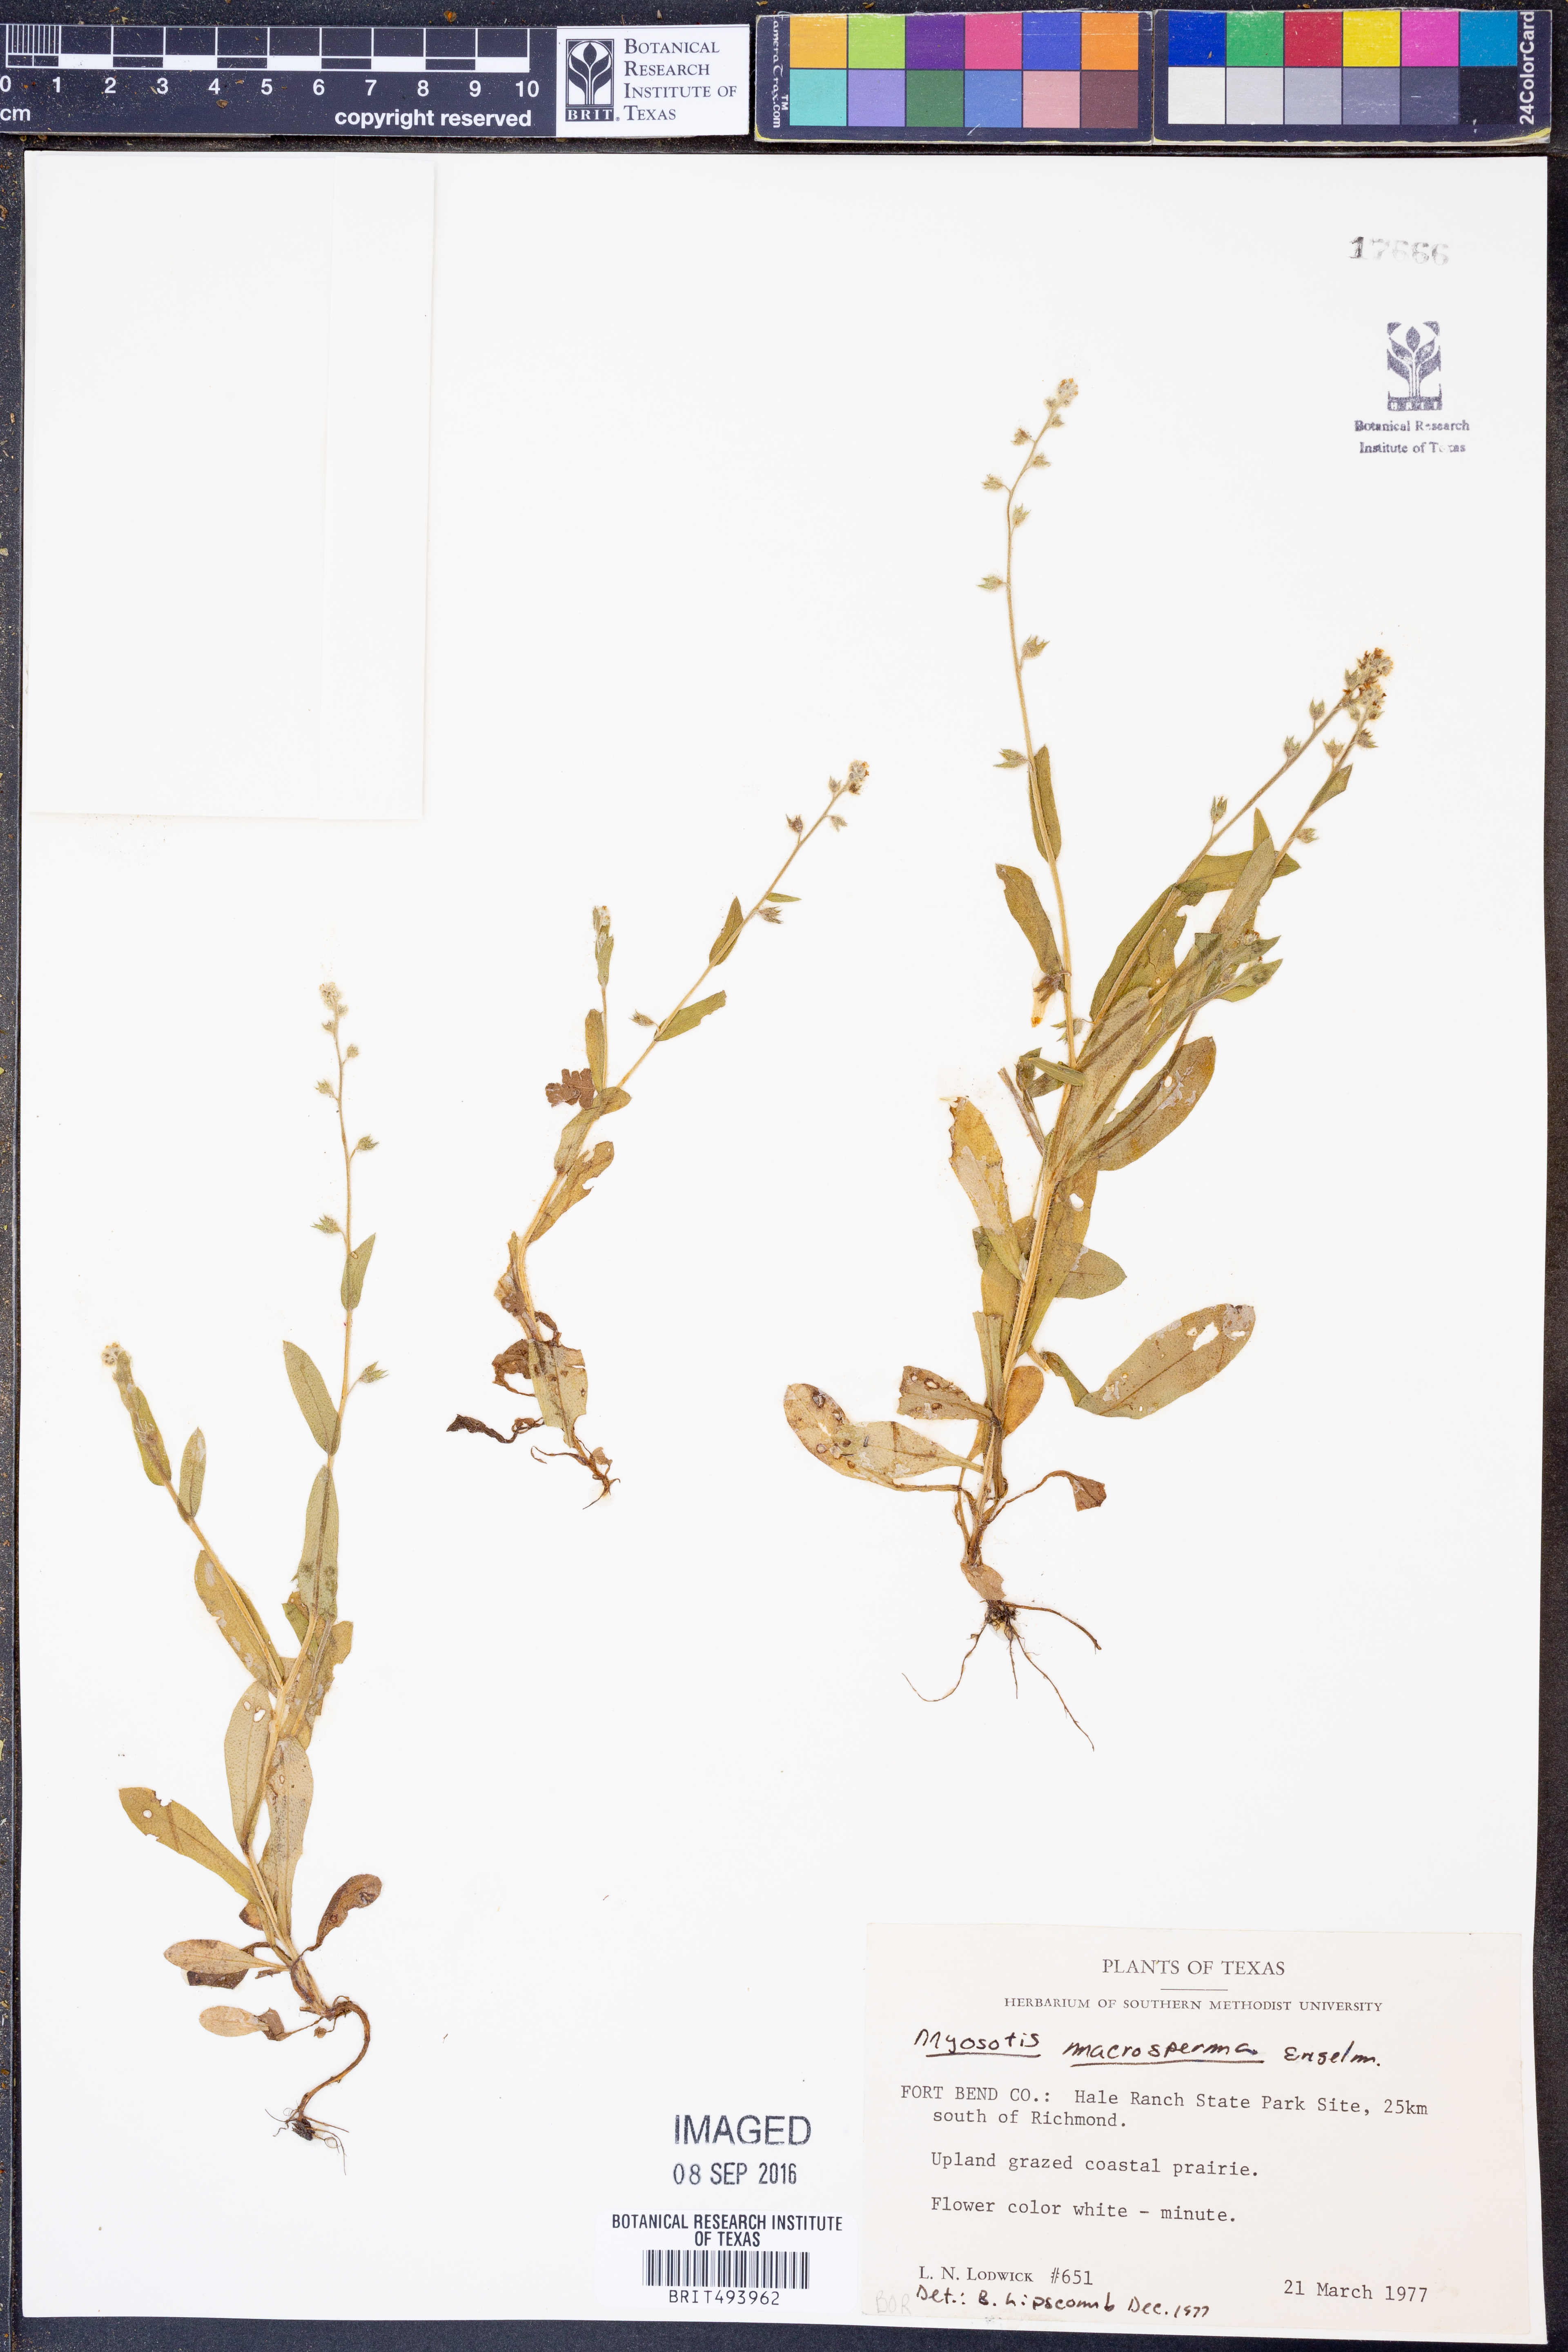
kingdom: Plantae
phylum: Tracheophyta
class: Magnoliopsida
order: Boraginales
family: Boraginaceae
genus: Myosotis
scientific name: Myosotis macrosperma
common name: Large-seed forget-me-not
